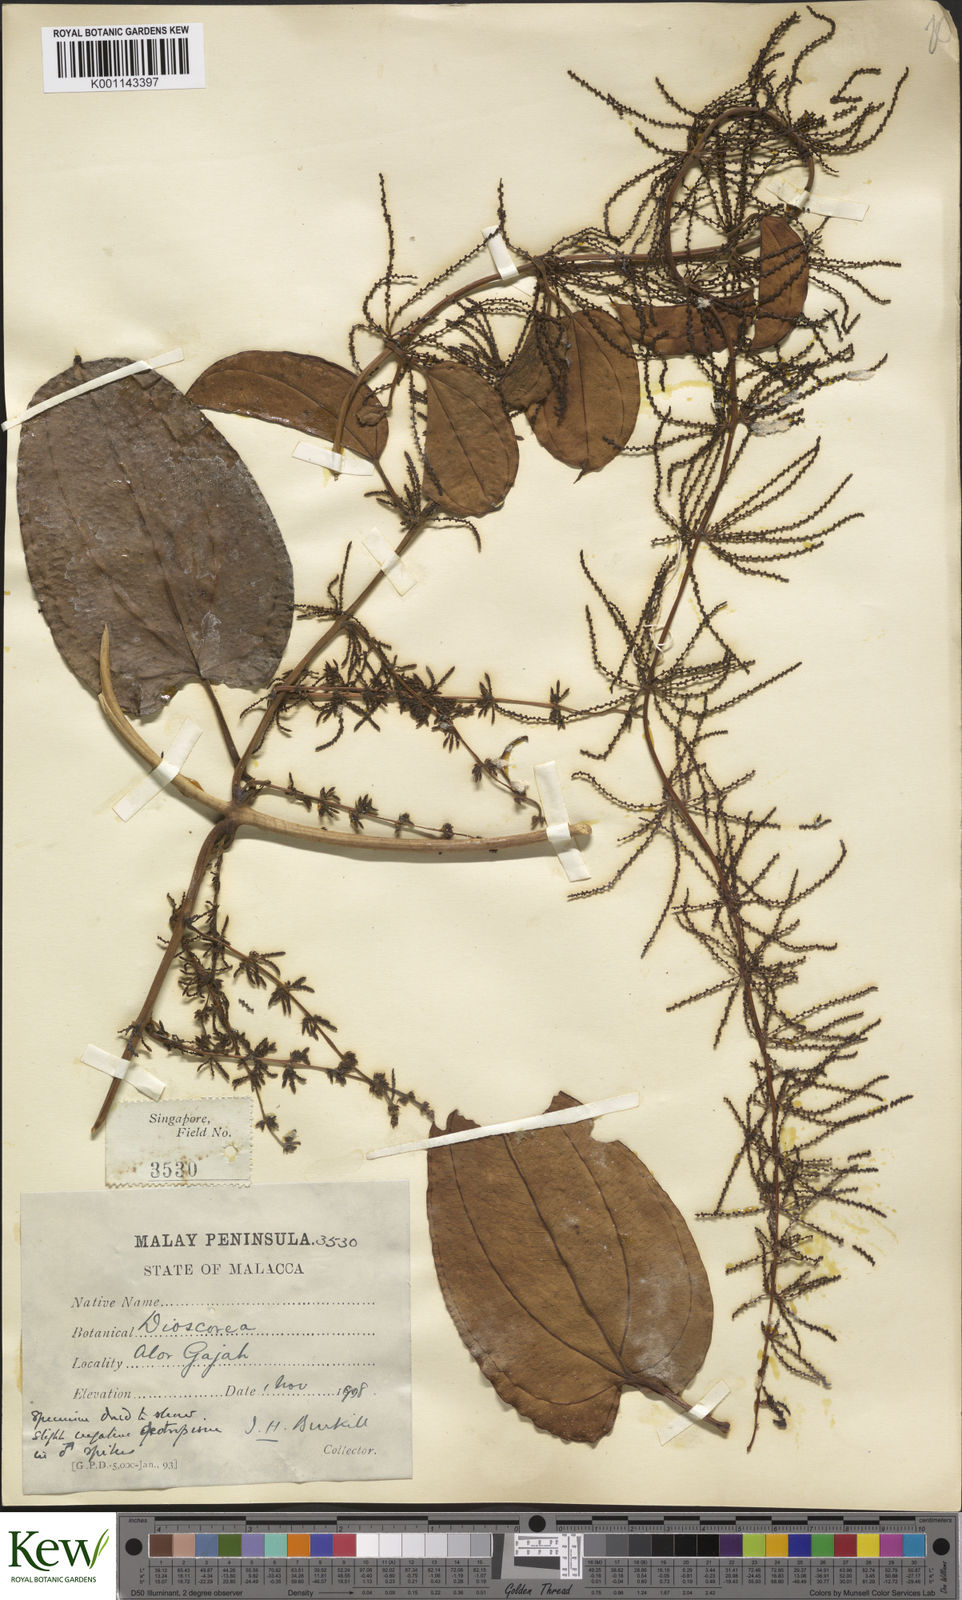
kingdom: Plantae
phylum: Tracheophyta
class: Liliopsida
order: Dioscoreales
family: Dioscoreaceae
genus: Dioscorea
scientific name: Dioscorea pyrifolia
